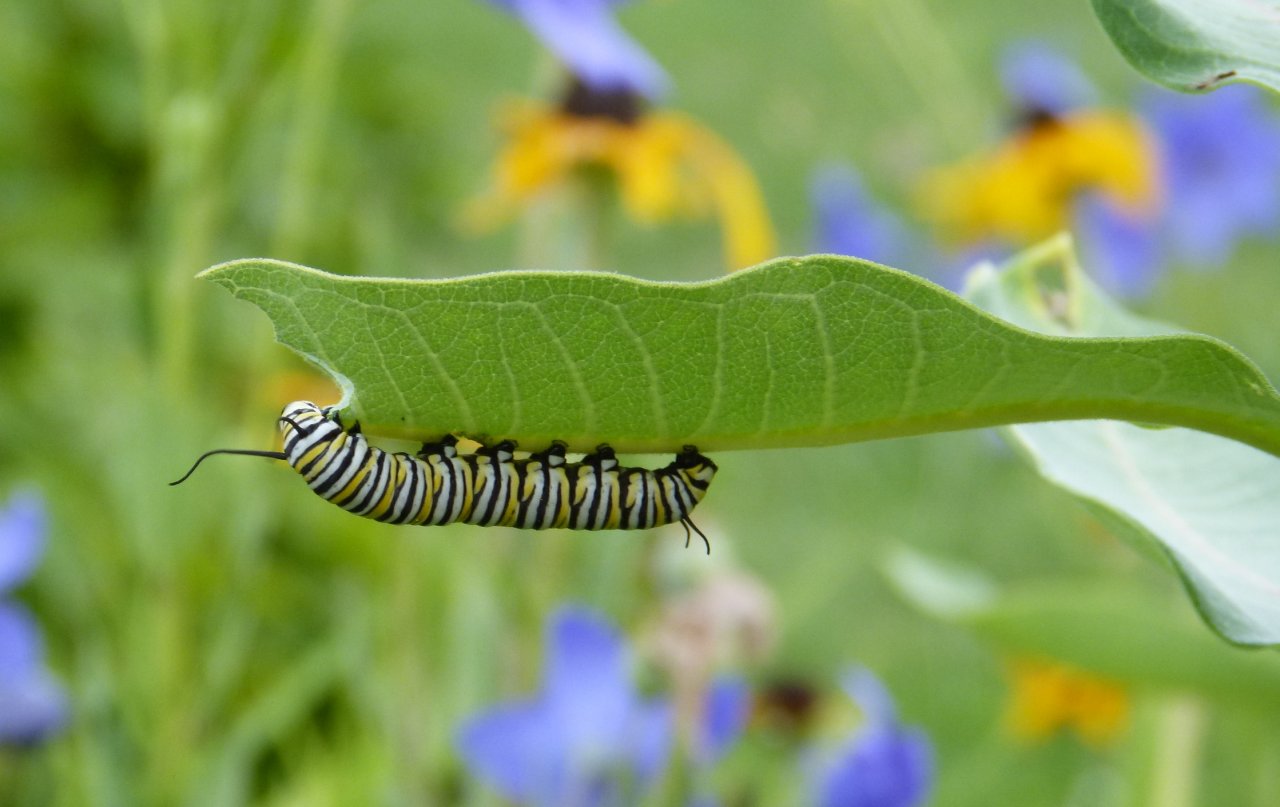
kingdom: Animalia
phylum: Arthropoda
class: Insecta
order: Lepidoptera
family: Nymphalidae
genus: Danaus
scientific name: Danaus plexippus
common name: Monarch
